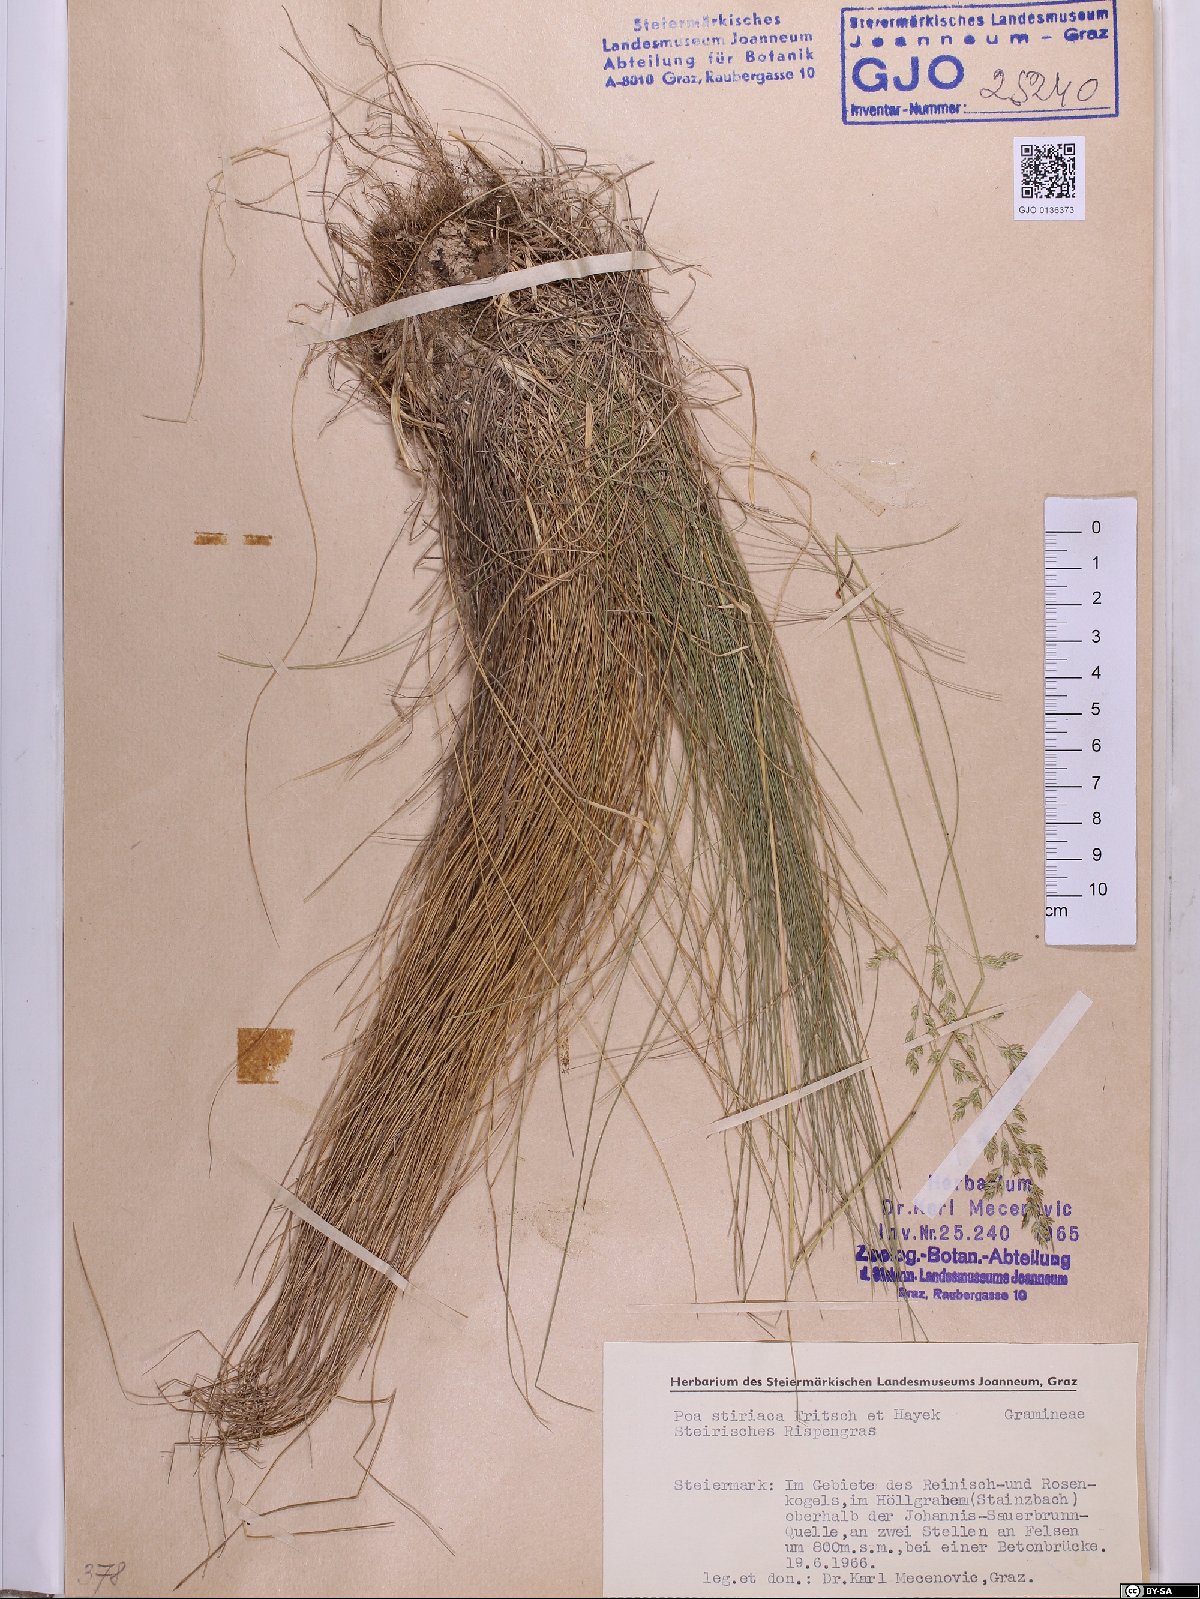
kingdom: Plantae
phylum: Tracheophyta
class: Liliopsida
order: Poales
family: Poaceae
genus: Poa
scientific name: Poa stiriaca
